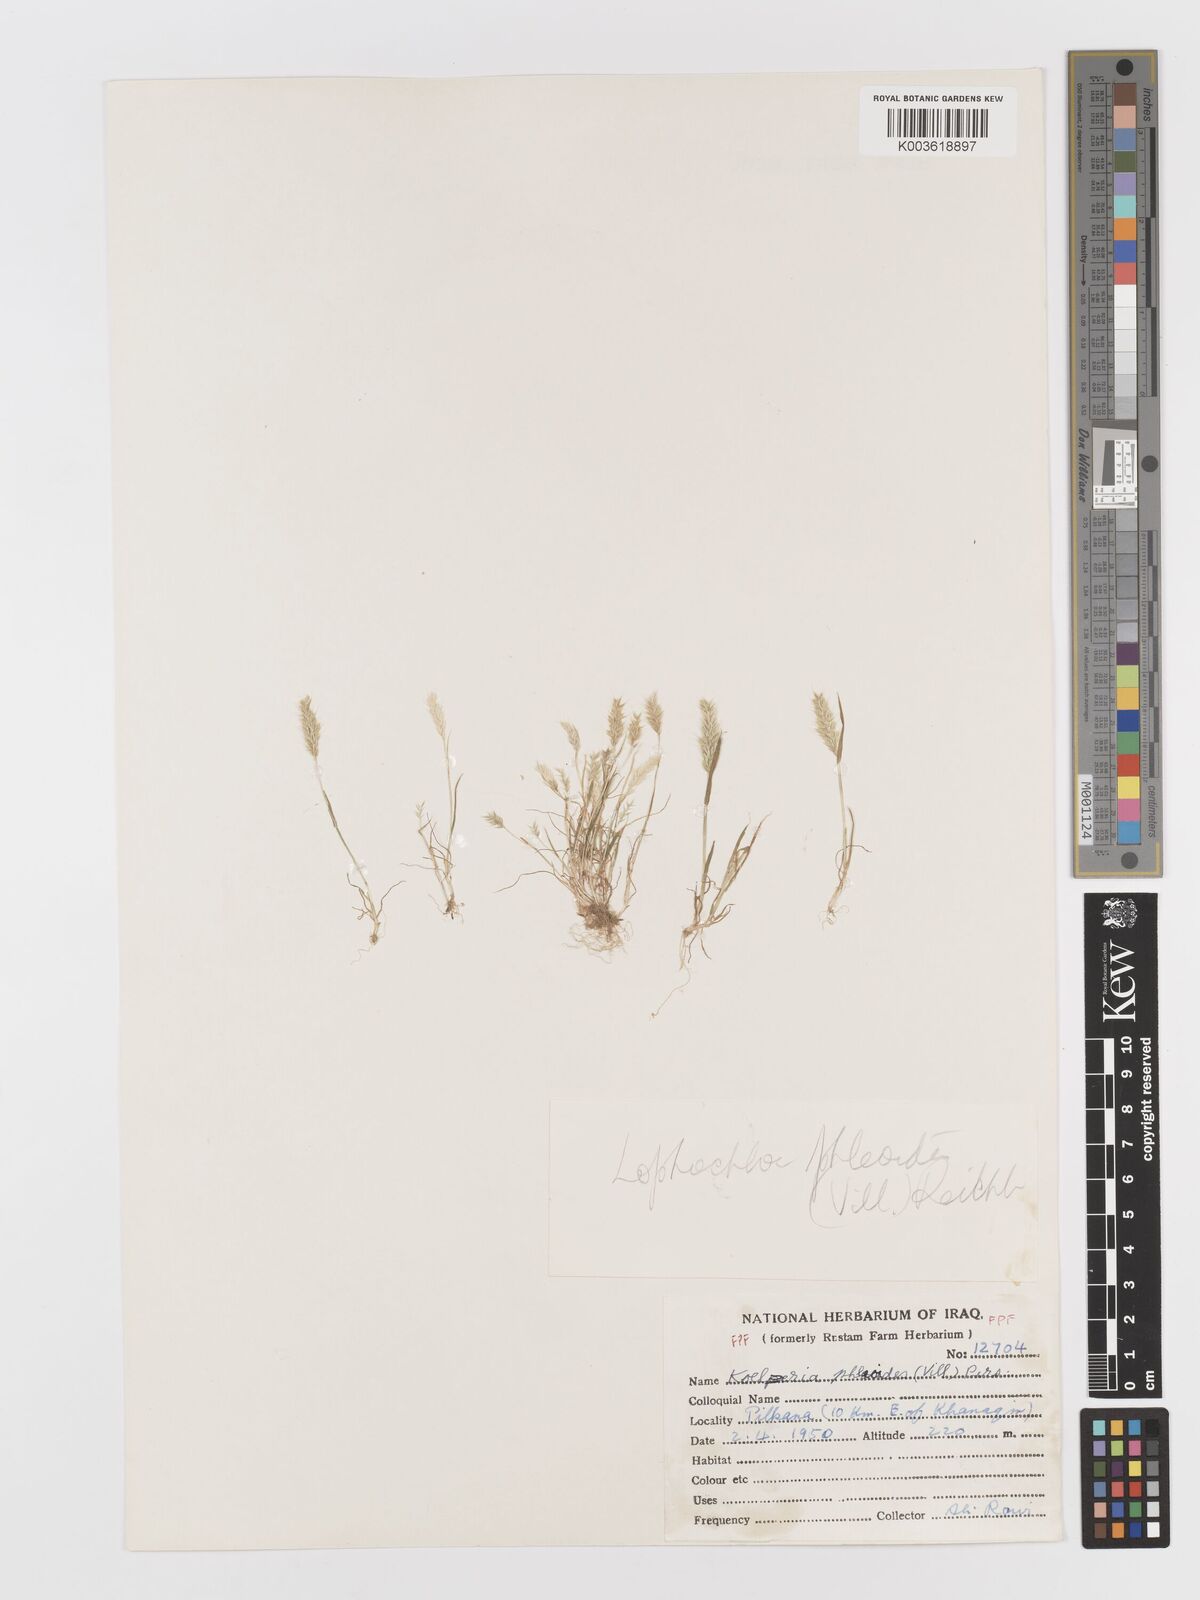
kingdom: Plantae
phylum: Tracheophyta
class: Liliopsida
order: Poales
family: Poaceae
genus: Rostraria
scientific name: Rostraria cristata
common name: Mediterranean hair-grass
